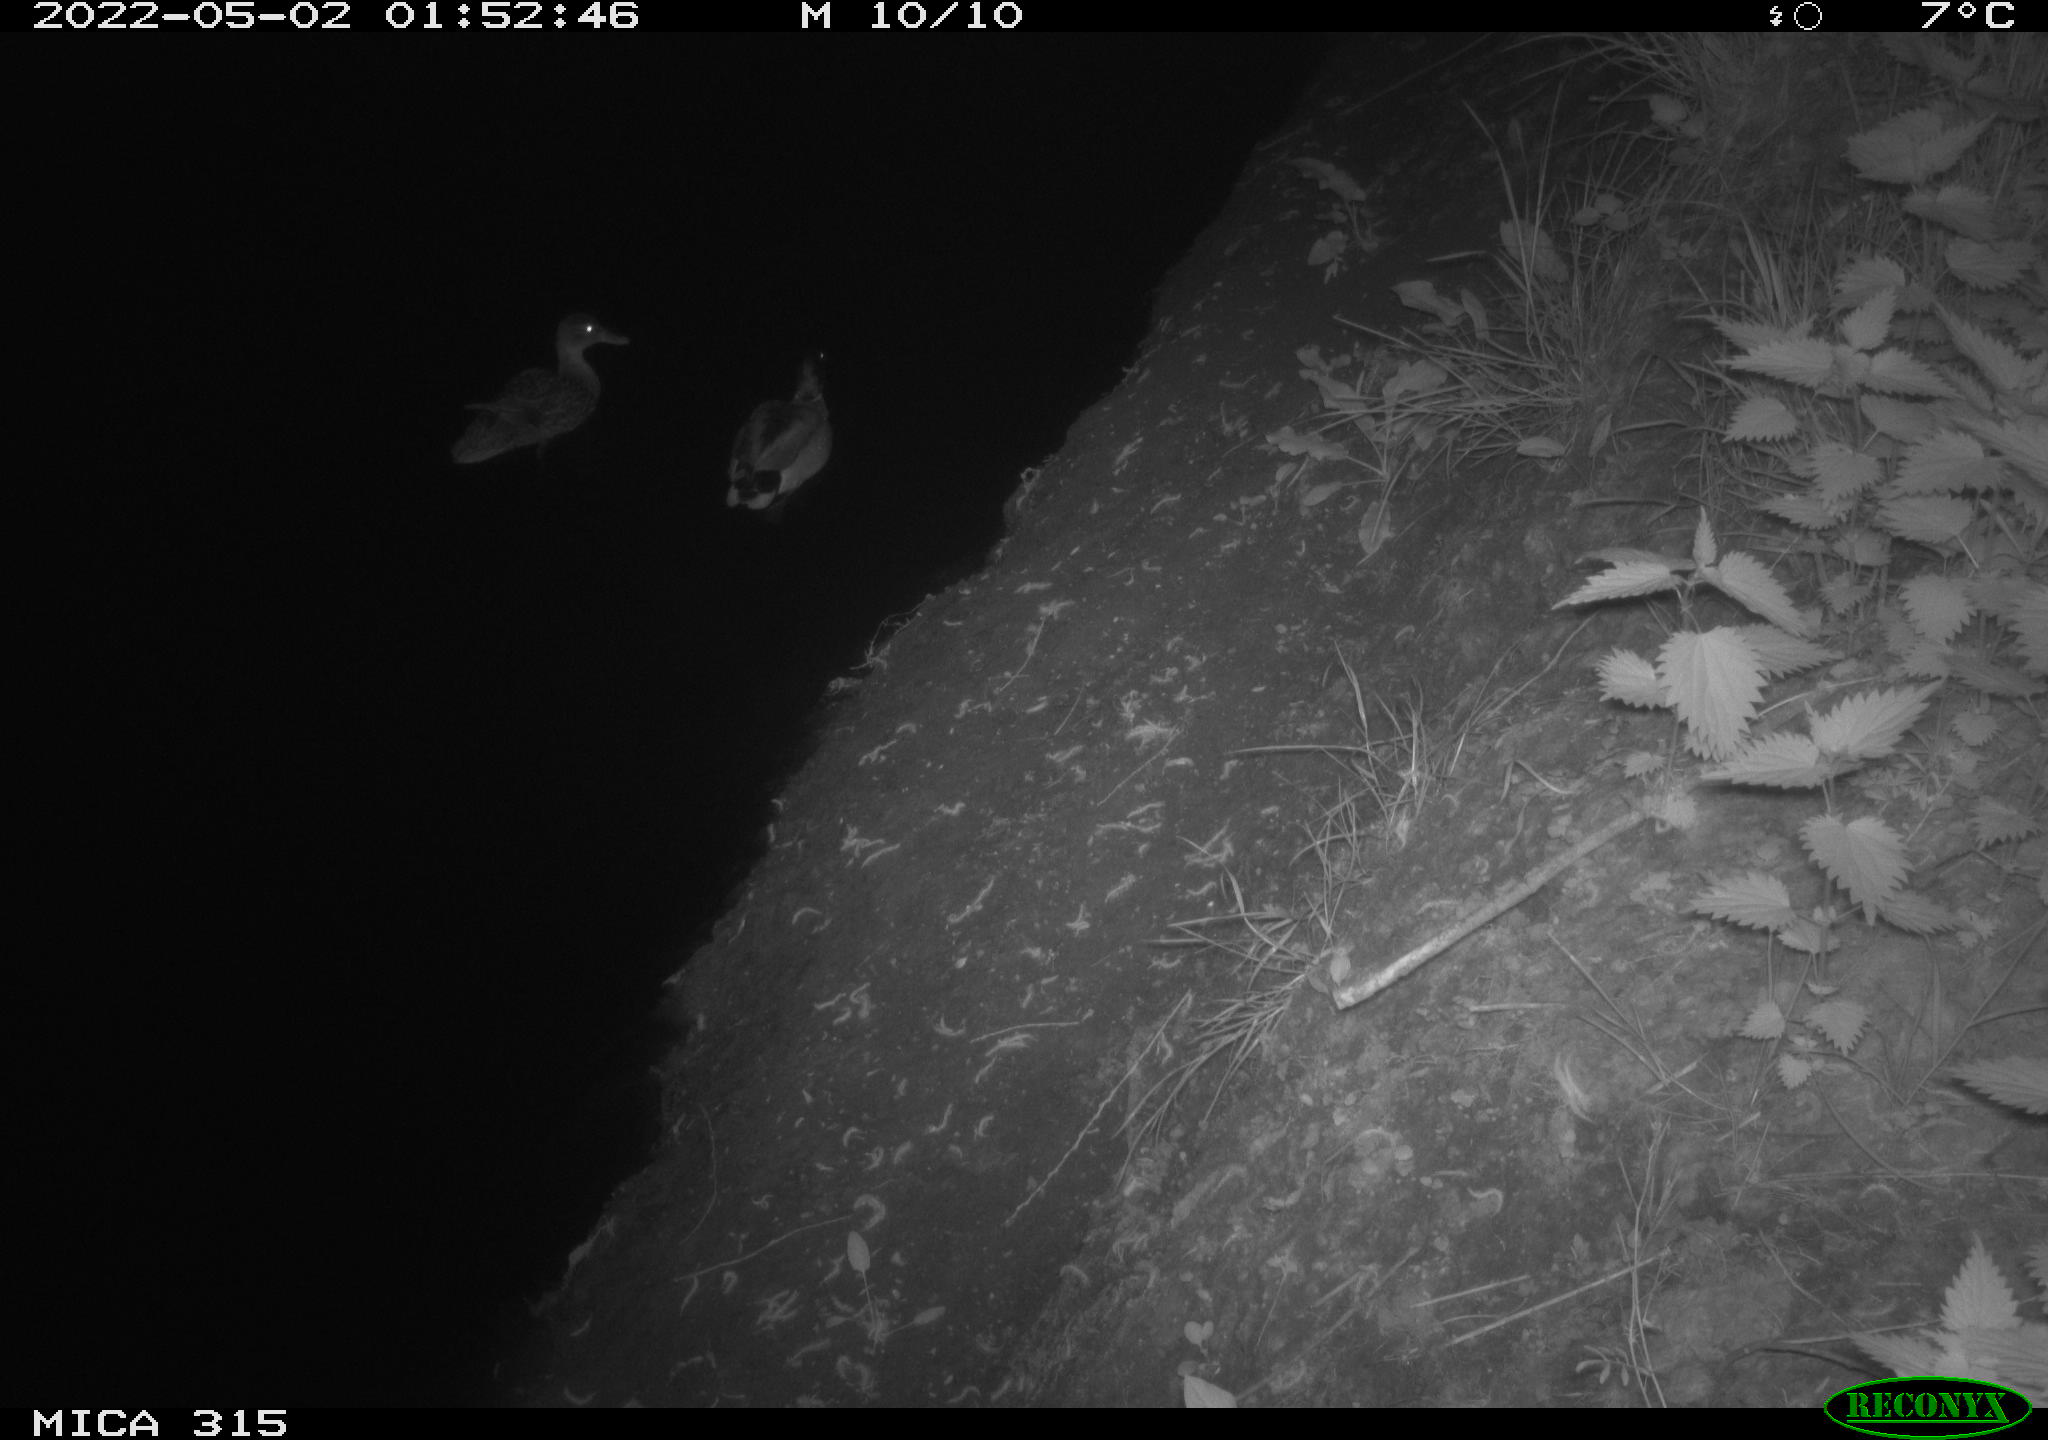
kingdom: Animalia
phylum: Chordata
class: Aves
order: Anseriformes
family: Anatidae
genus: Anas
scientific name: Anas platyrhynchos
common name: Mallard
